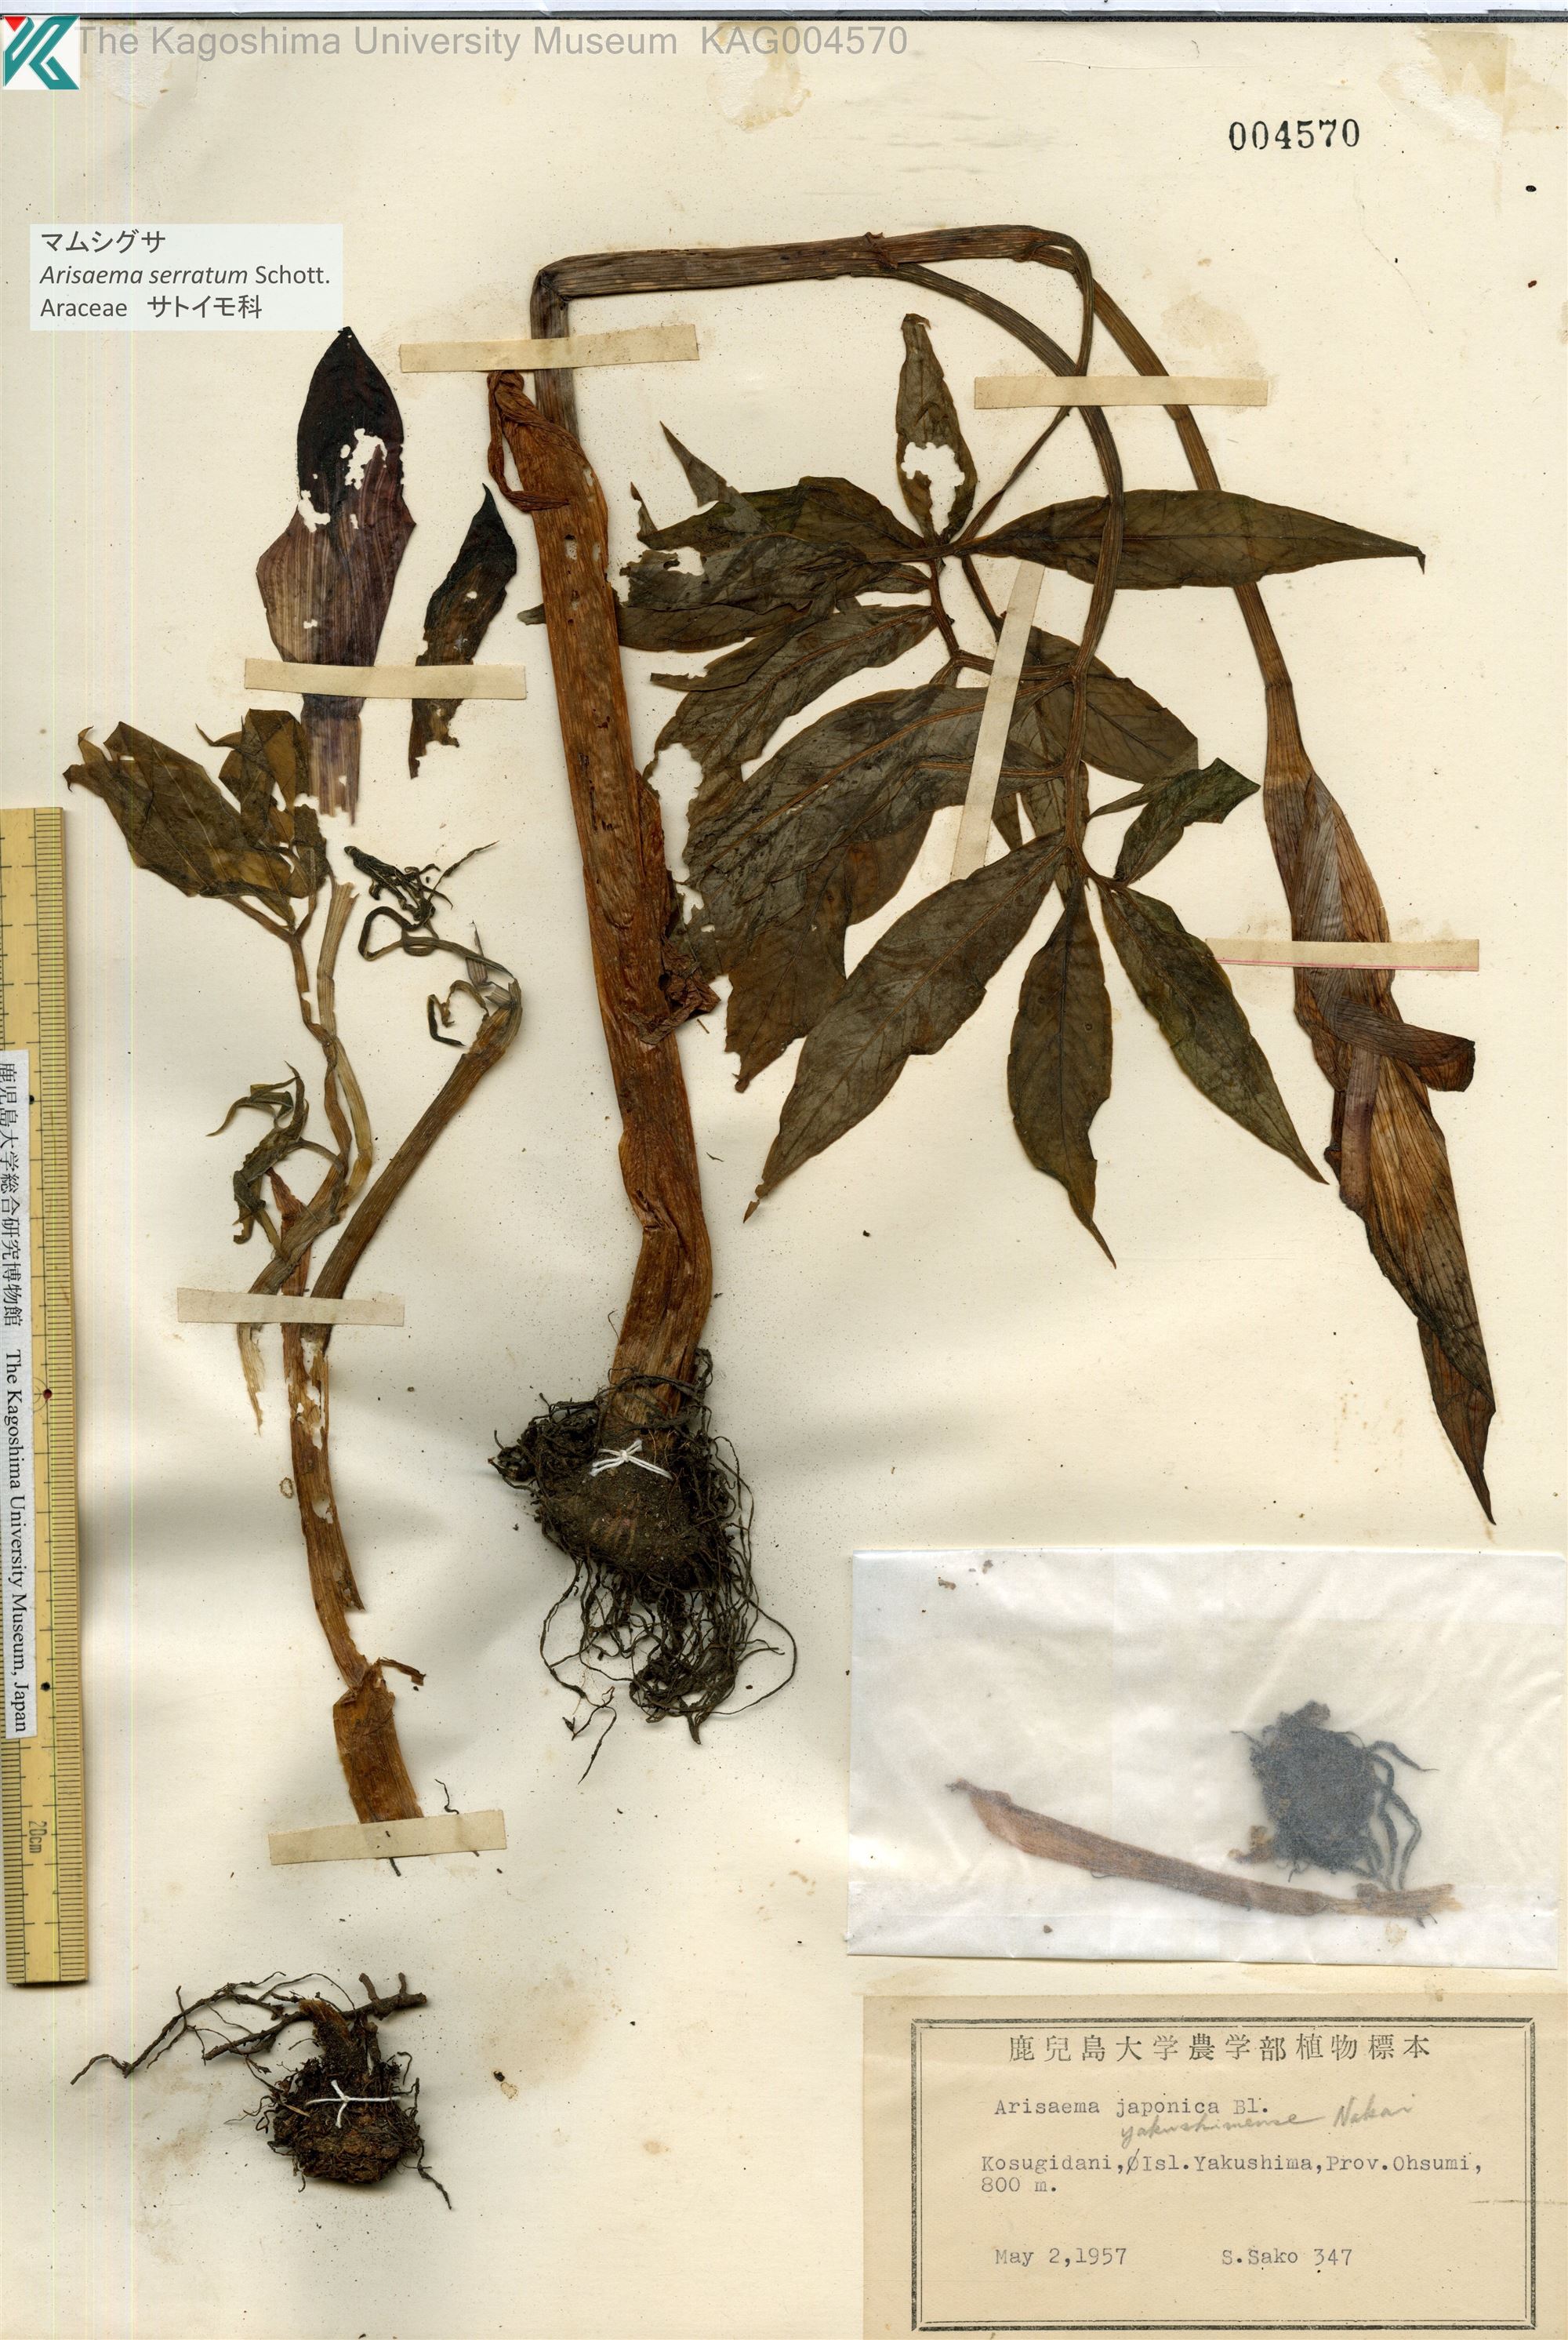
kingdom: Plantae
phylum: Tracheophyta
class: Liliopsida
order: Alismatales
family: Araceae
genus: Arisaema
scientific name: Arisaema serratum
